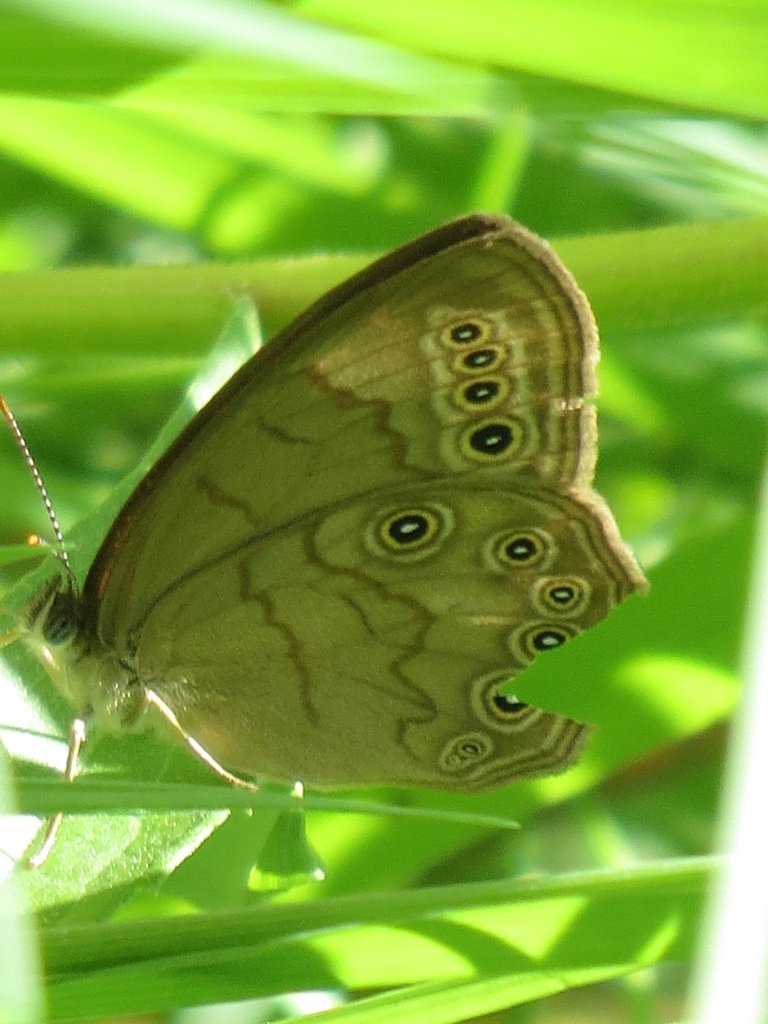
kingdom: Animalia
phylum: Arthropoda
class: Insecta
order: Lepidoptera
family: Nymphalidae
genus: Lethe
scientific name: Lethe eurydice
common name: Eyed Brown
